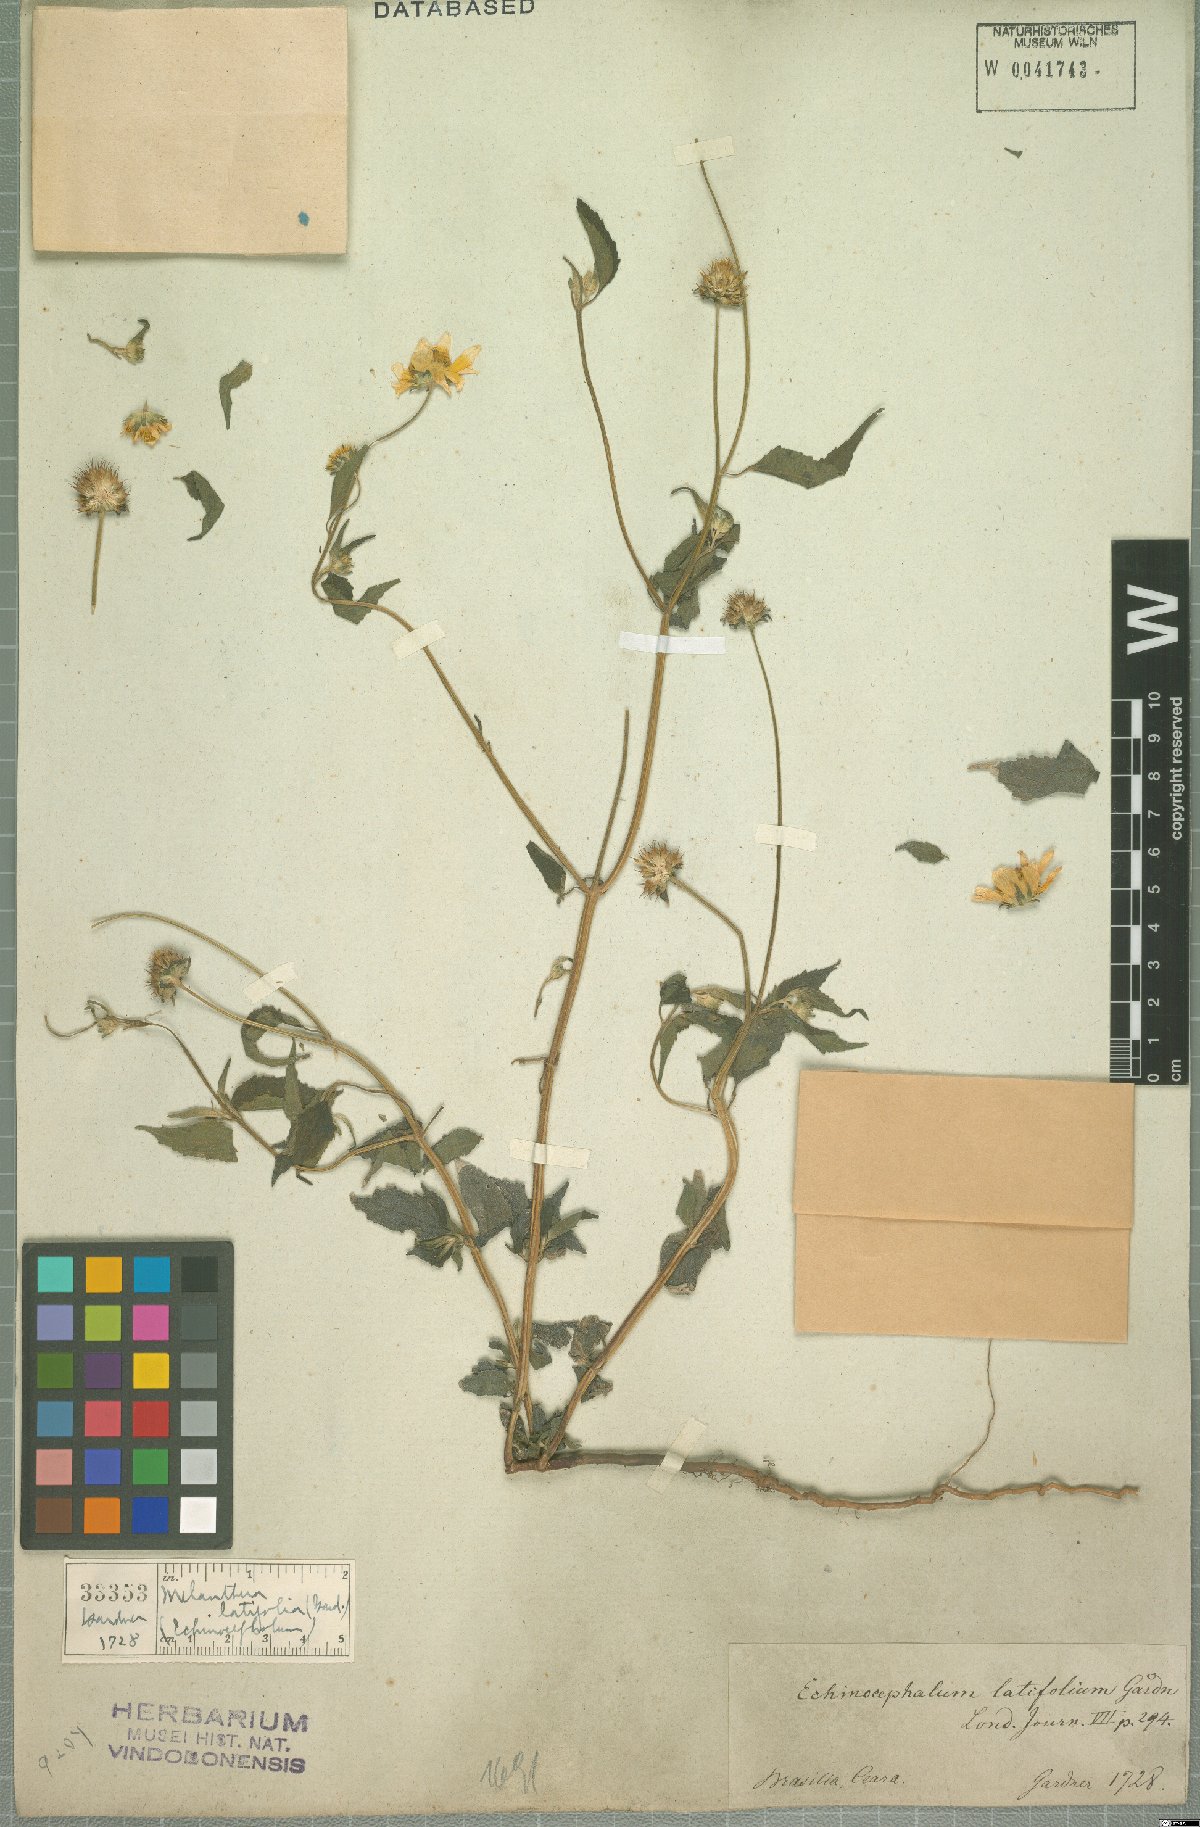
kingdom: Plantae
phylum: Tracheophyta
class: Magnoliopsida
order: Asterales
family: Asteraceae
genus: Echinocephalum
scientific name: Echinocephalum latifolium
